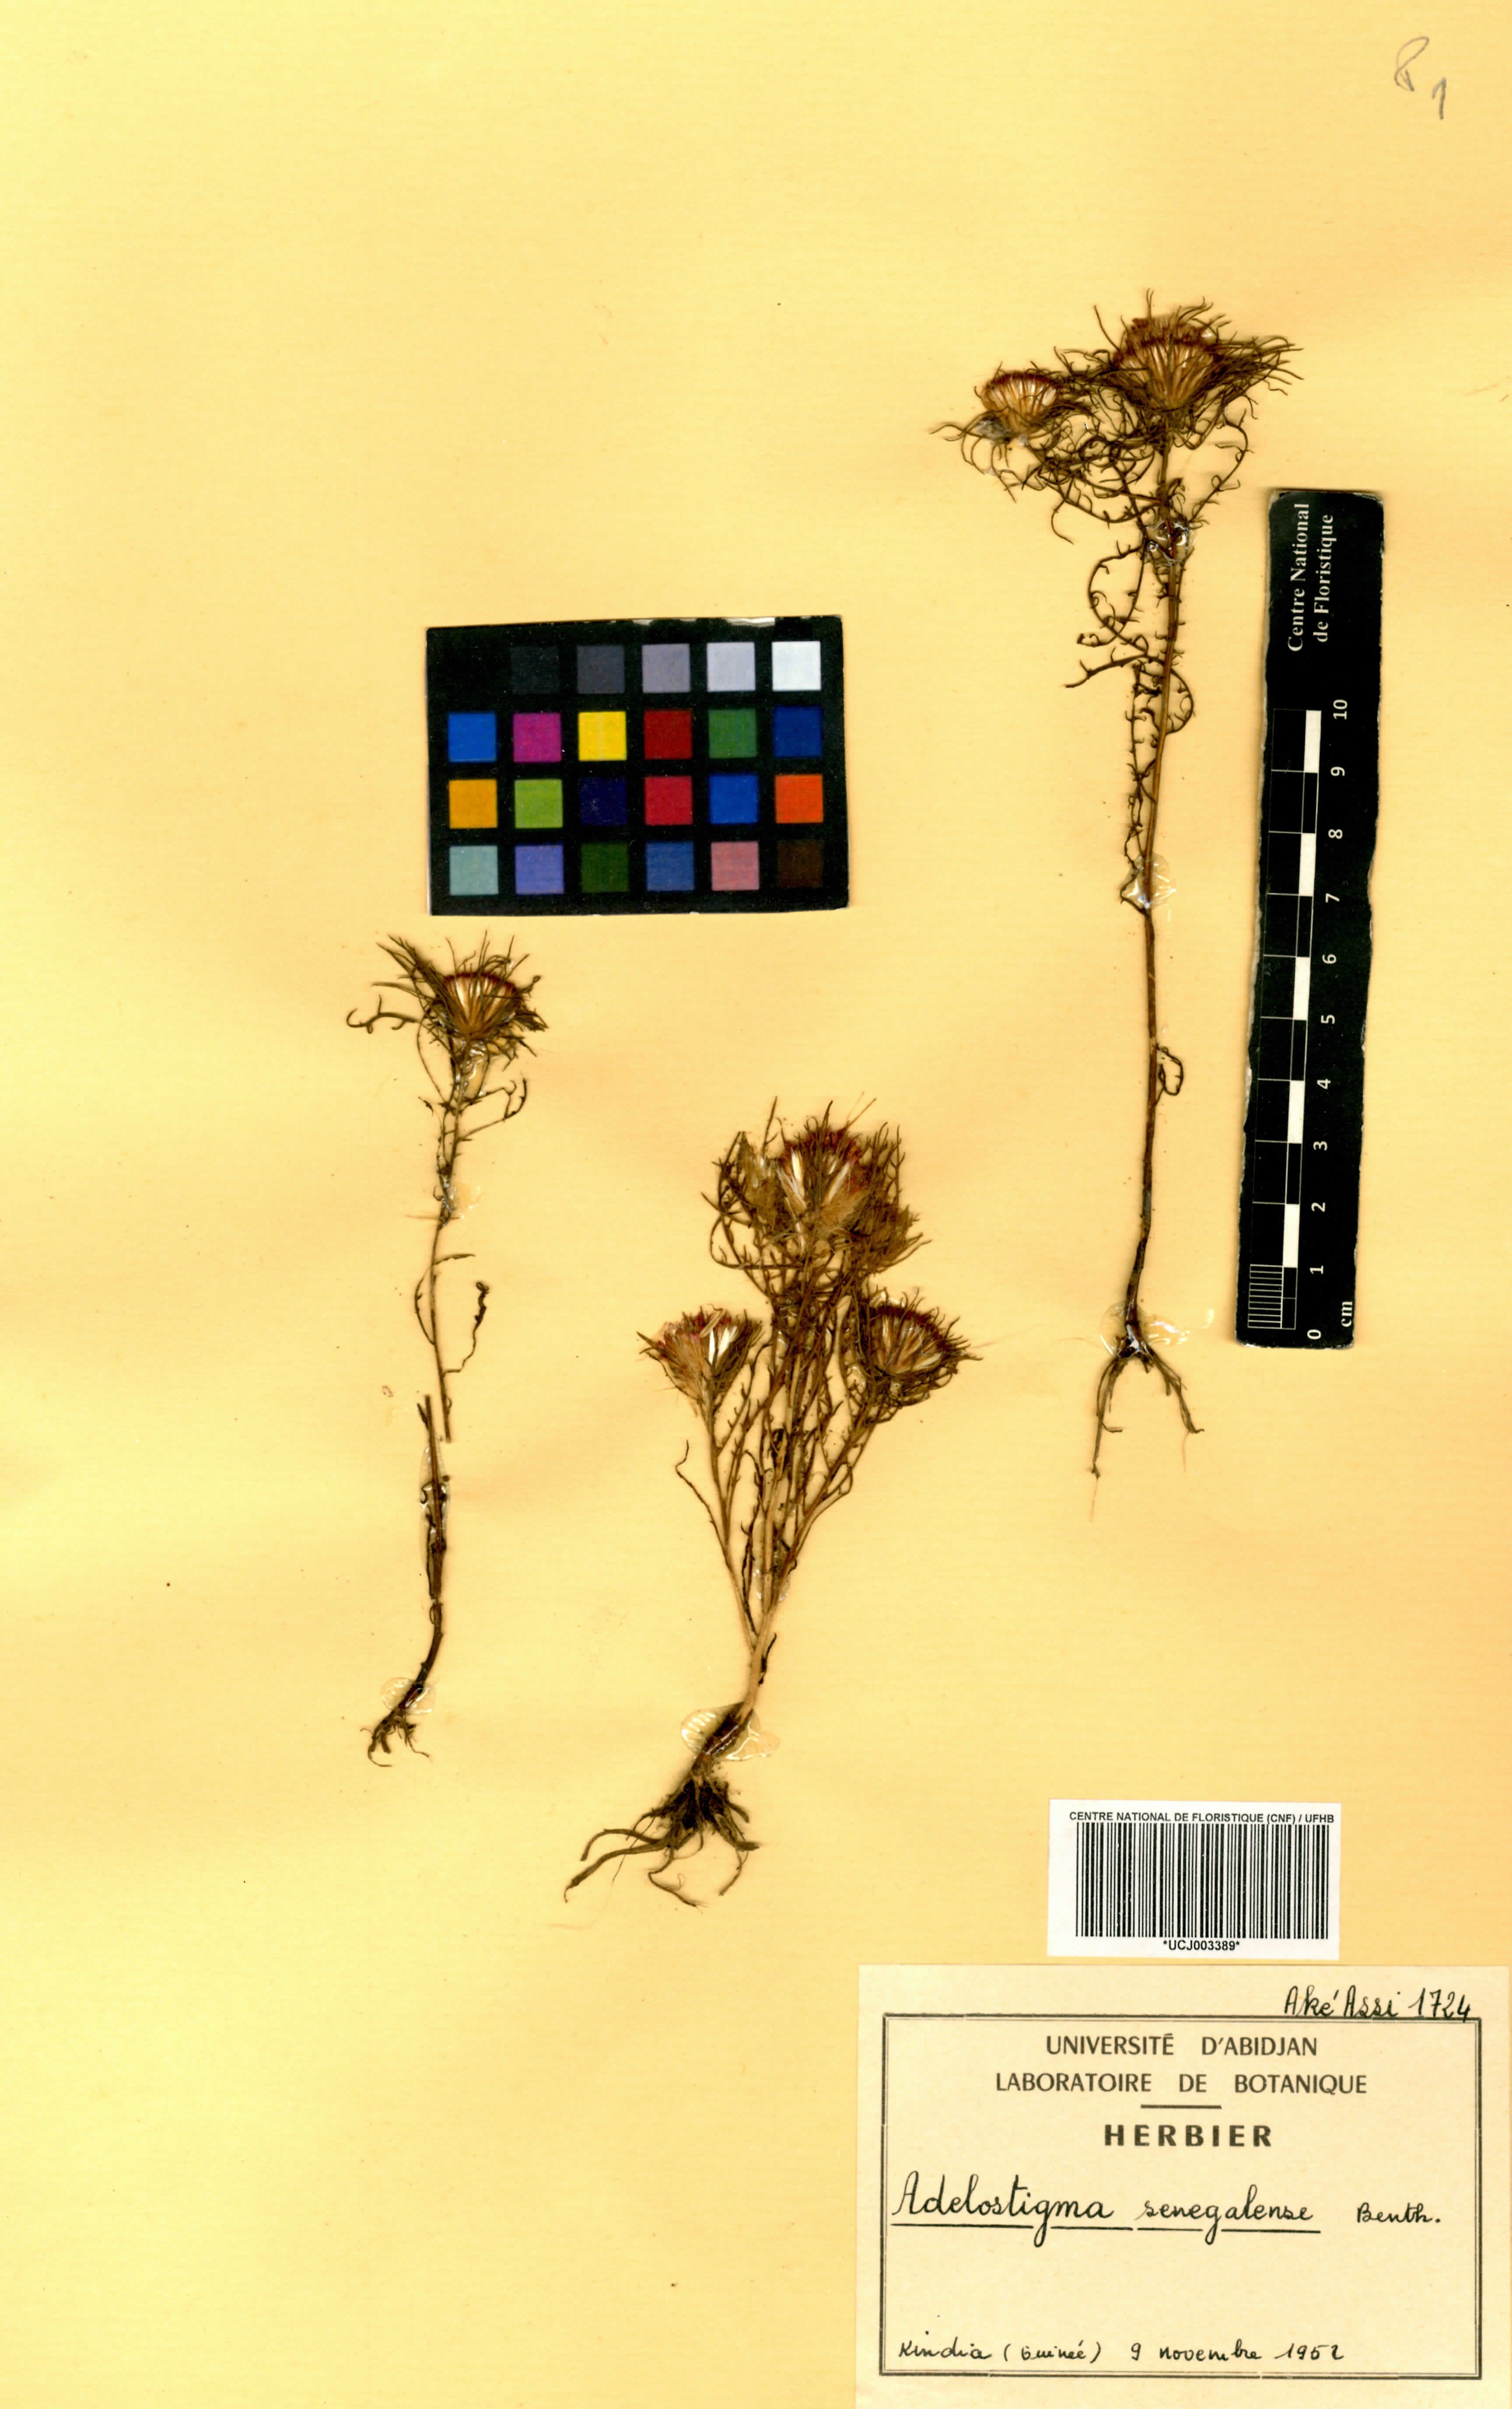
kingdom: Plantae
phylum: Tracheophyta
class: Magnoliopsida
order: Asterales
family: Asteraceae
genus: Adelostigma
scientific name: Adelostigma senegalense
